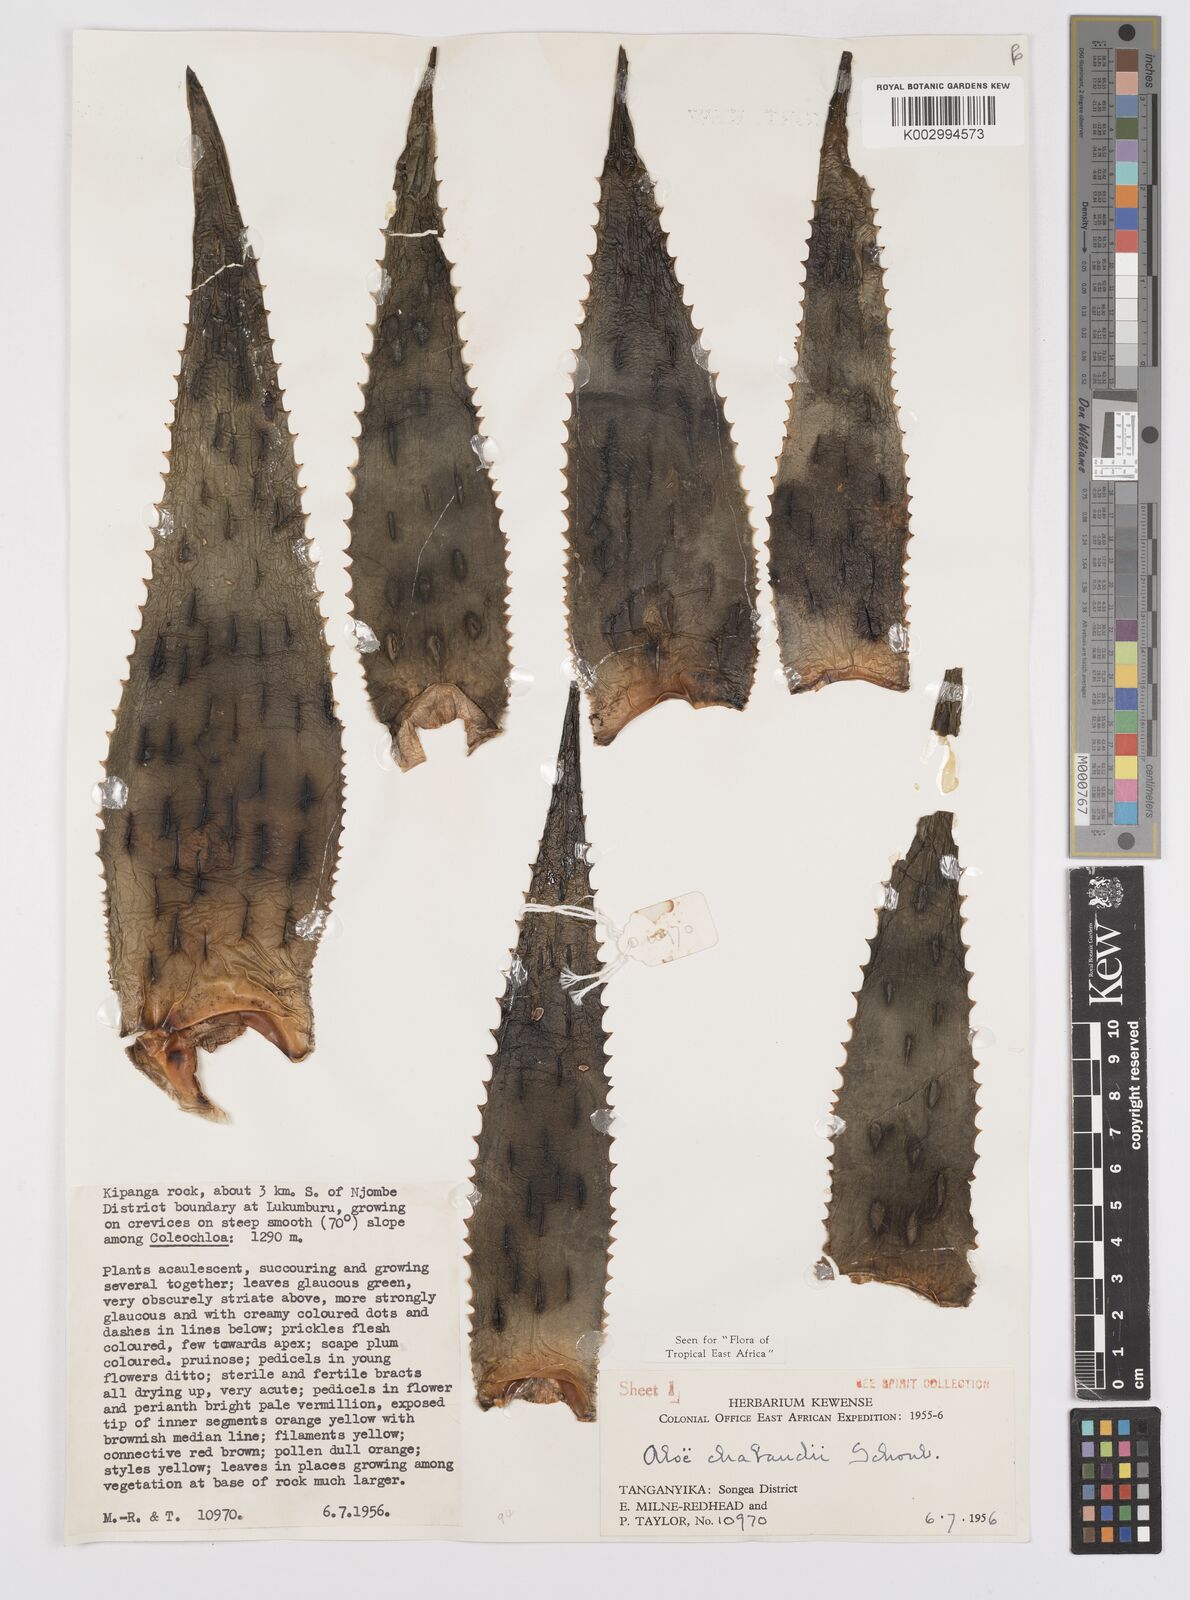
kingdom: Plantae
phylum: Tracheophyta
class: Liliopsida
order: Asparagales
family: Asphodelaceae
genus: Aloe
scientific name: Aloe chabaudii
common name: Chabaud's aloe
